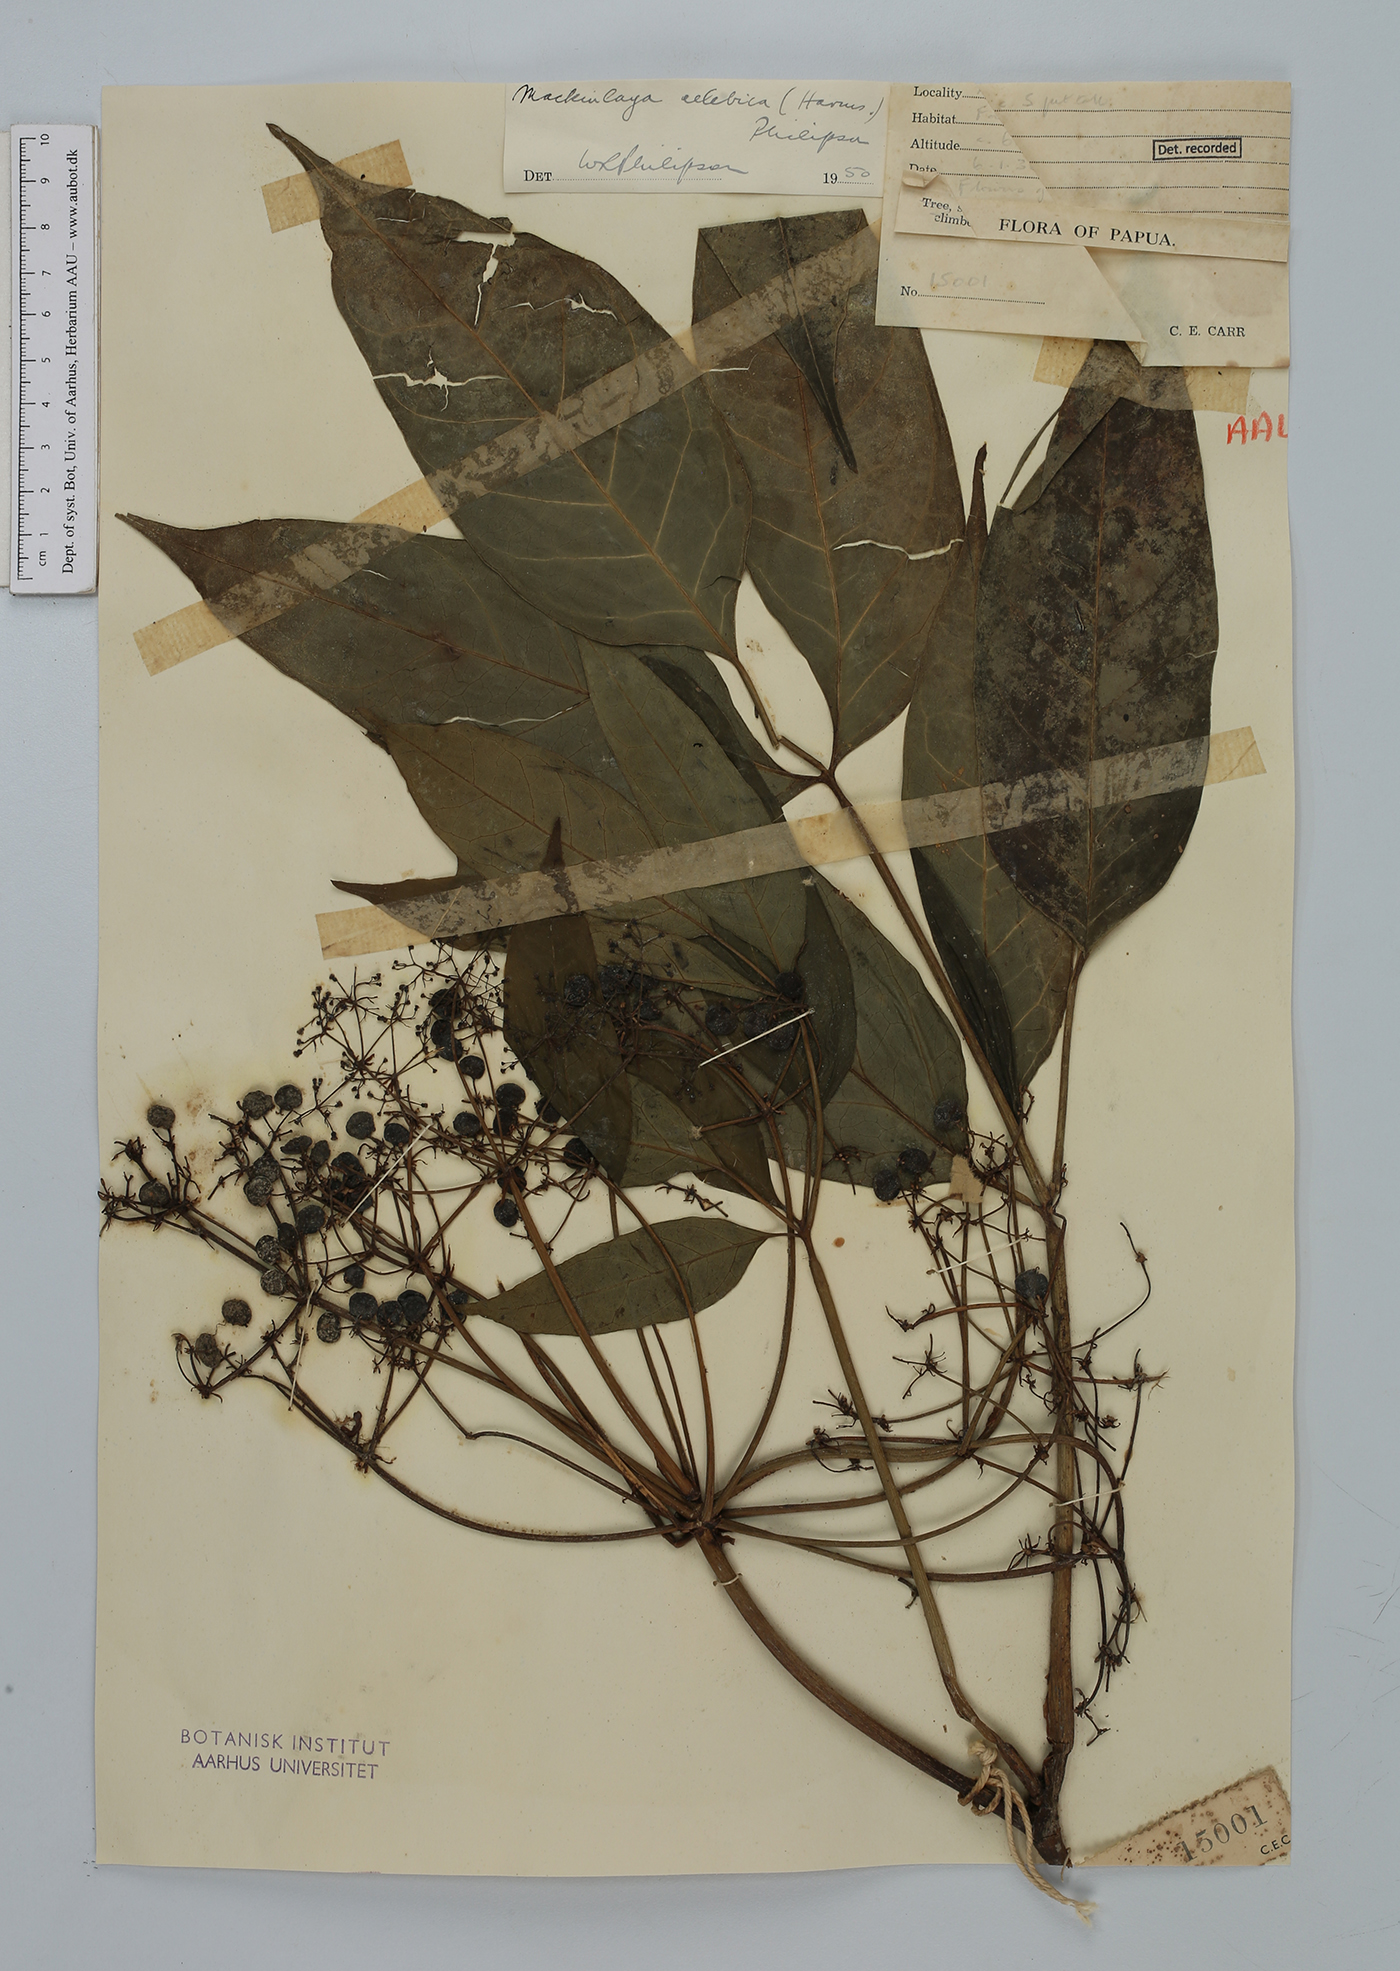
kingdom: Plantae
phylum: Tracheophyta
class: Magnoliopsida
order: Apiales
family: Apiaceae
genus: Mackinlaya
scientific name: Mackinlaya celebica
